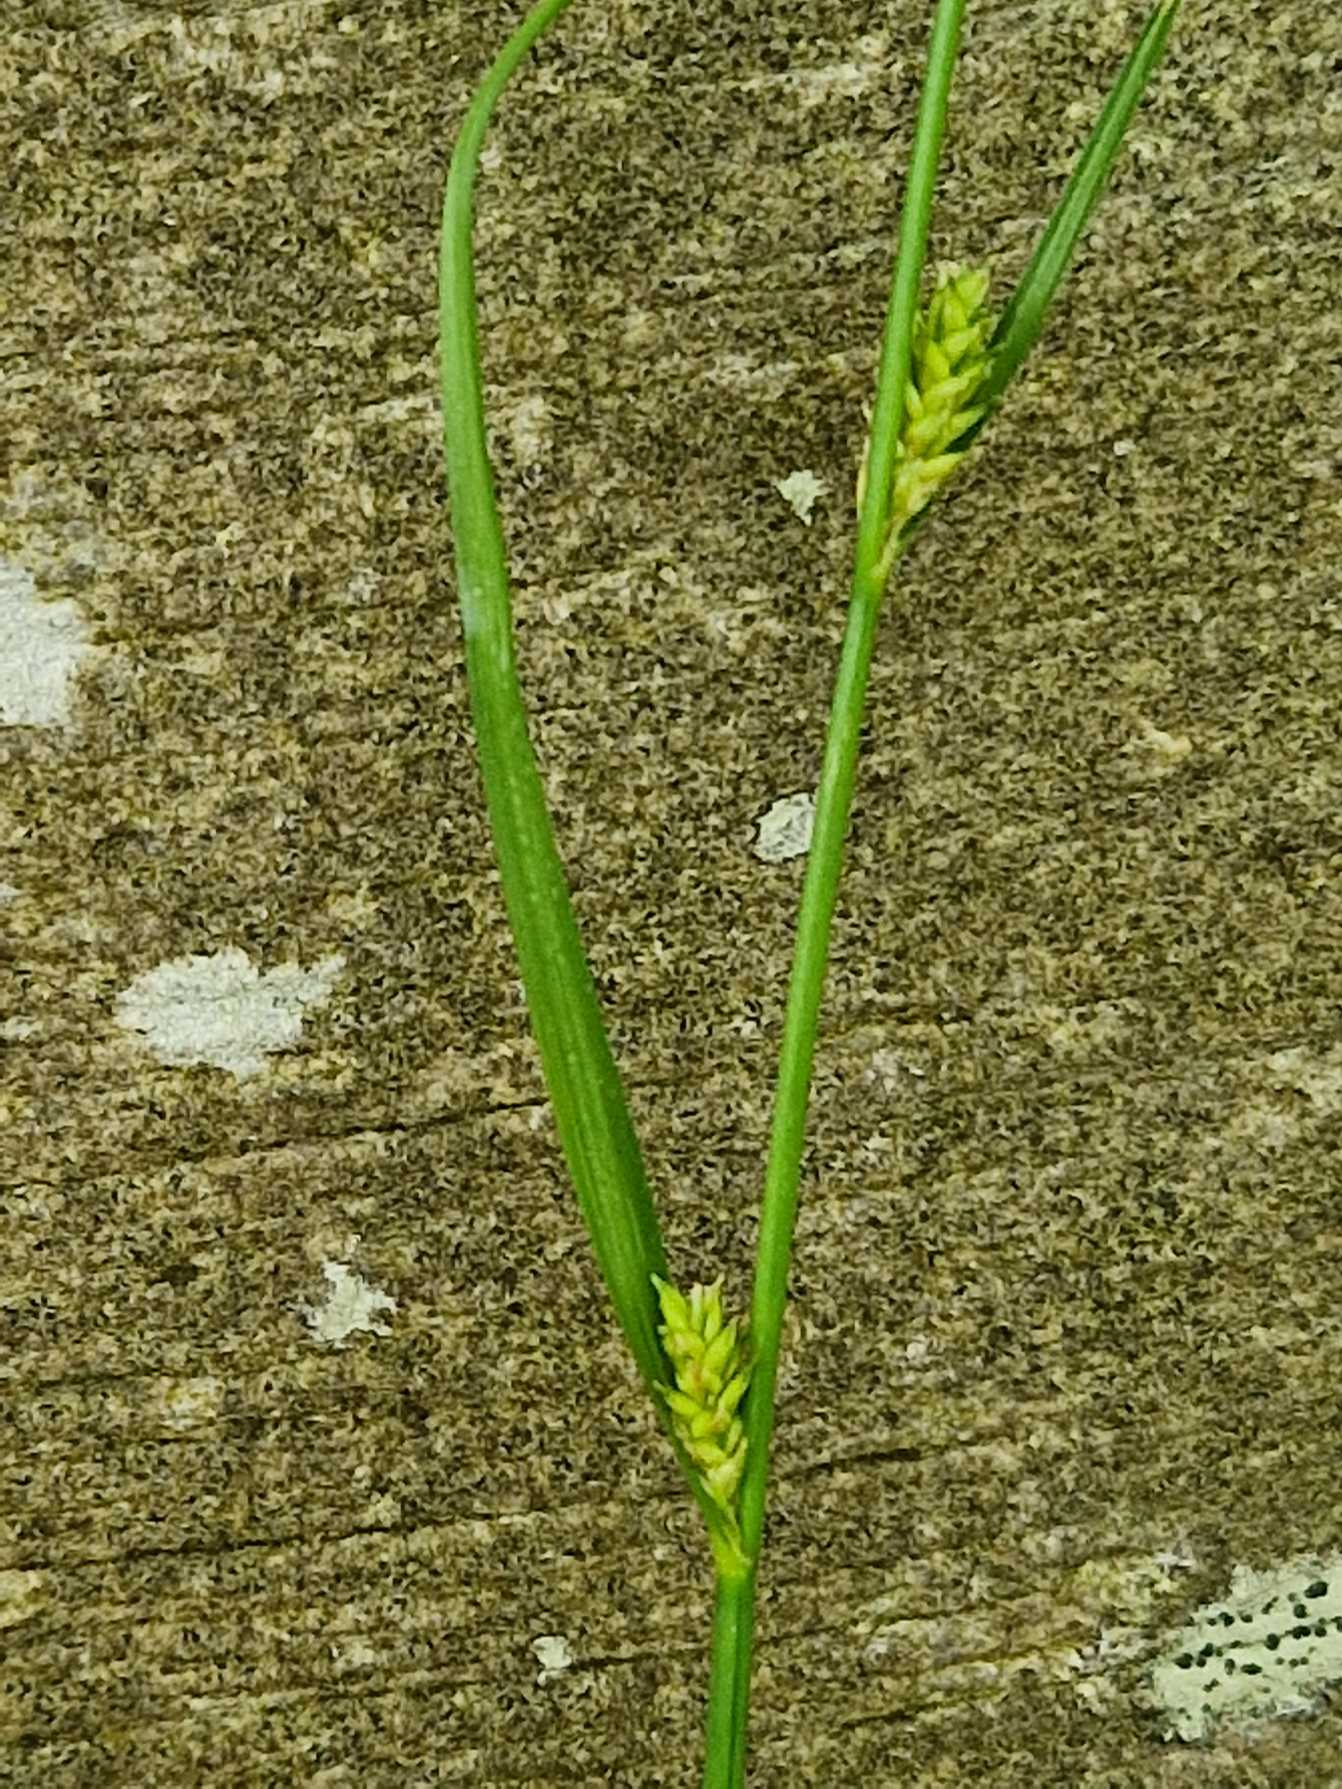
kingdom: Plantae
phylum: Tracheophyta
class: Liliopsida
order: Poales
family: Cyperaceae
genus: Carex
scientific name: Carex remota
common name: Akselblomstret star
